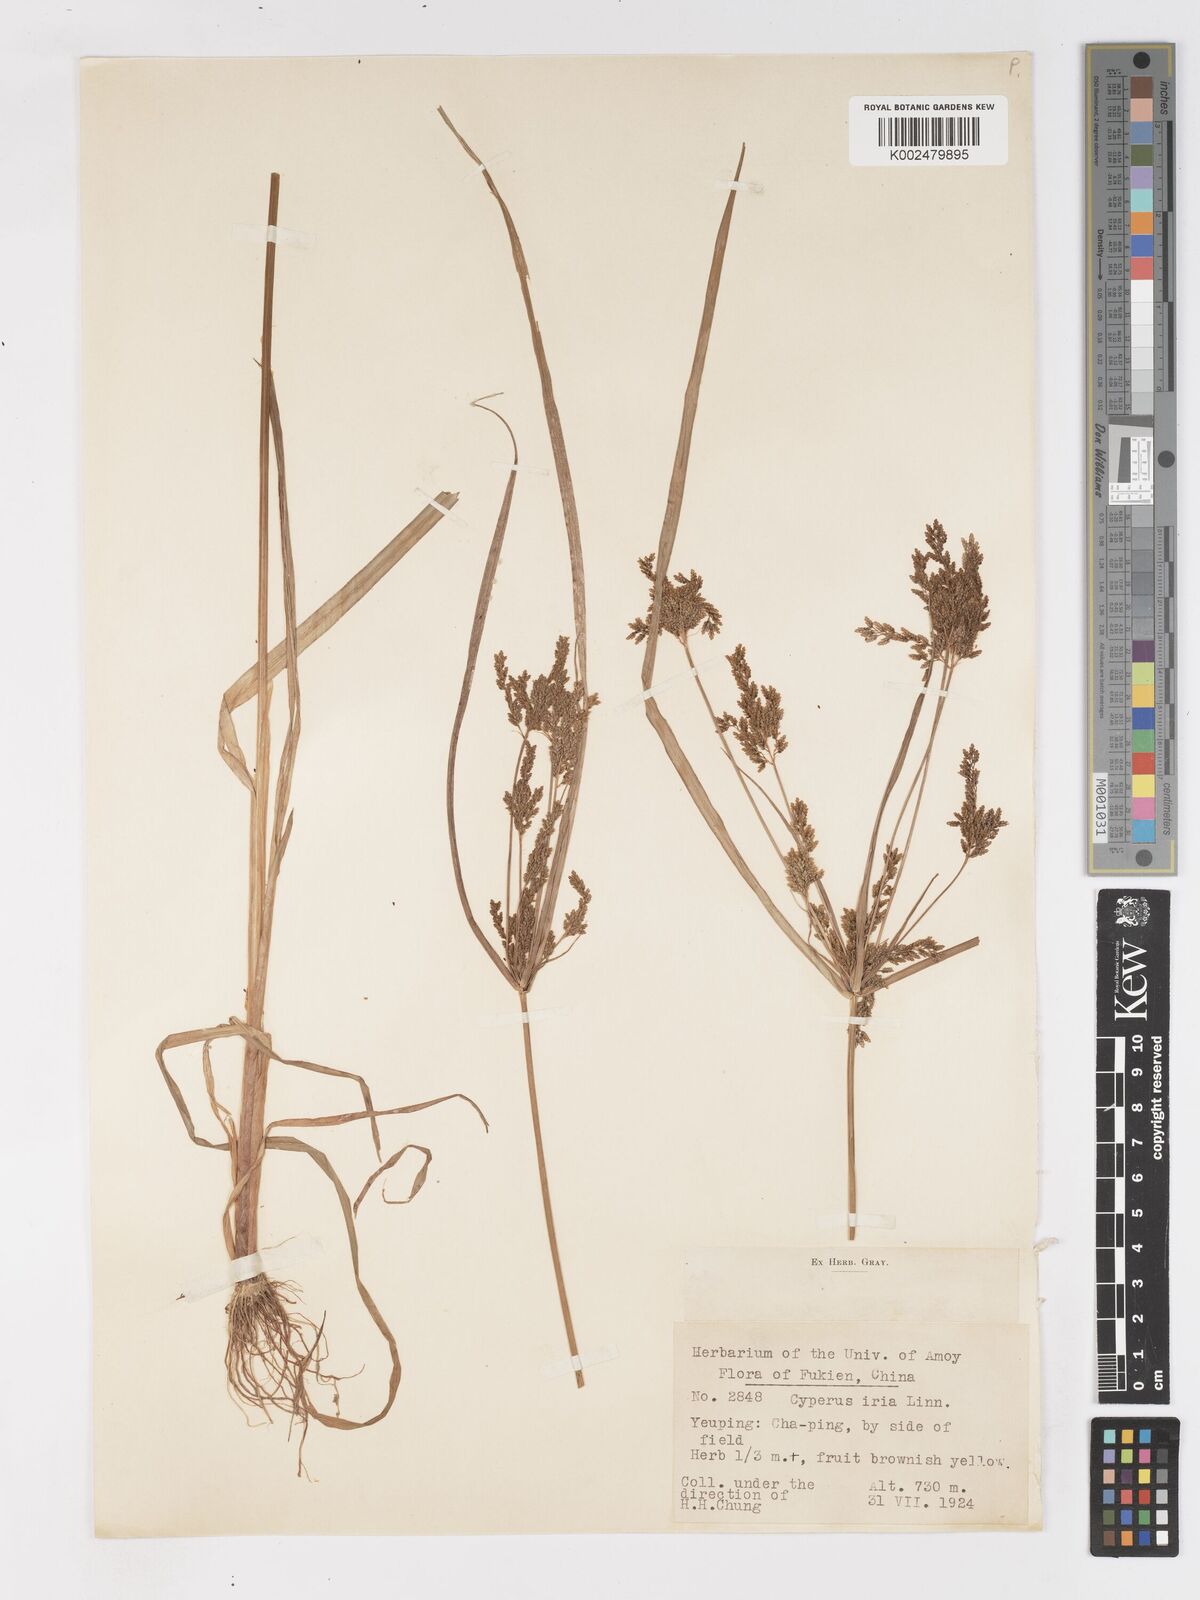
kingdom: Plantae
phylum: Tracheophyta
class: Liliopsida
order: Poales
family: Cyperaceae
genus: Cyperus
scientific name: Cyperus iria
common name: Ricefield flatsedge
